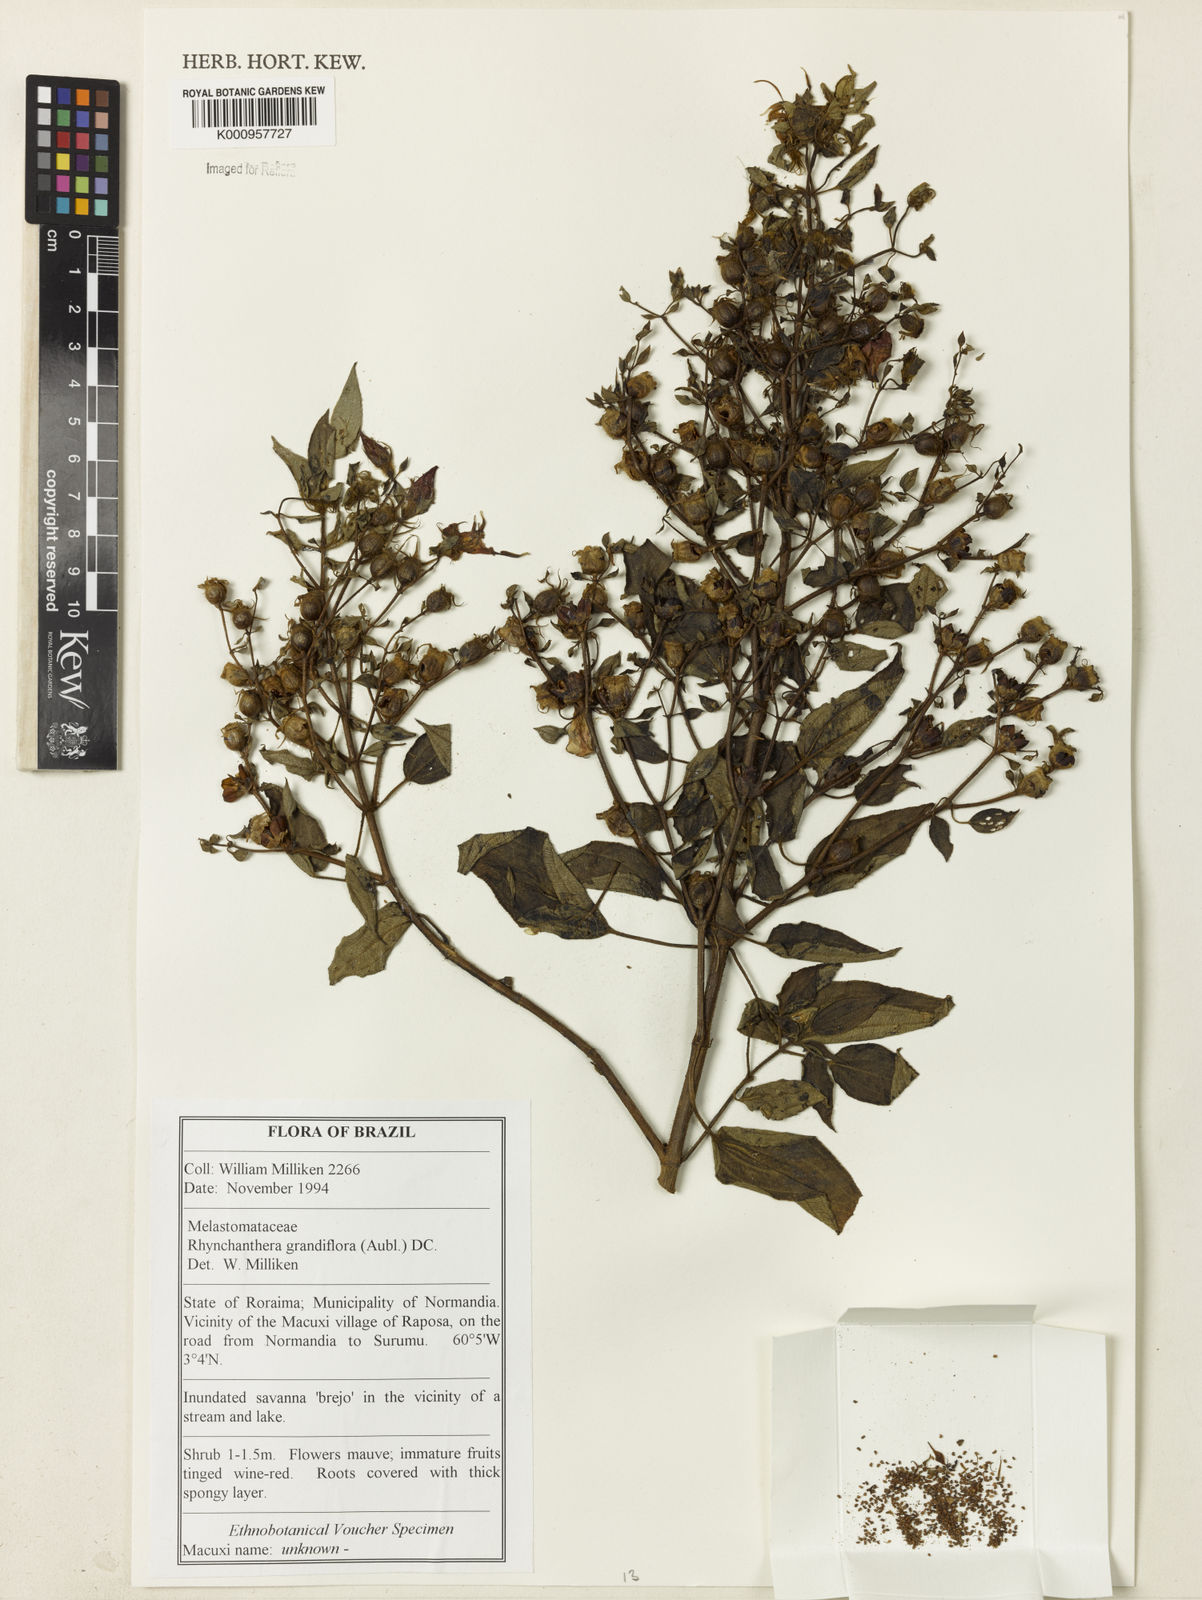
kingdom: Plantae
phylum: Tracheophyta
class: Magnoliopsida
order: Myrtales
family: Melastomataceae
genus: Rhynchanthera
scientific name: Rhynchanthera grandiflora
